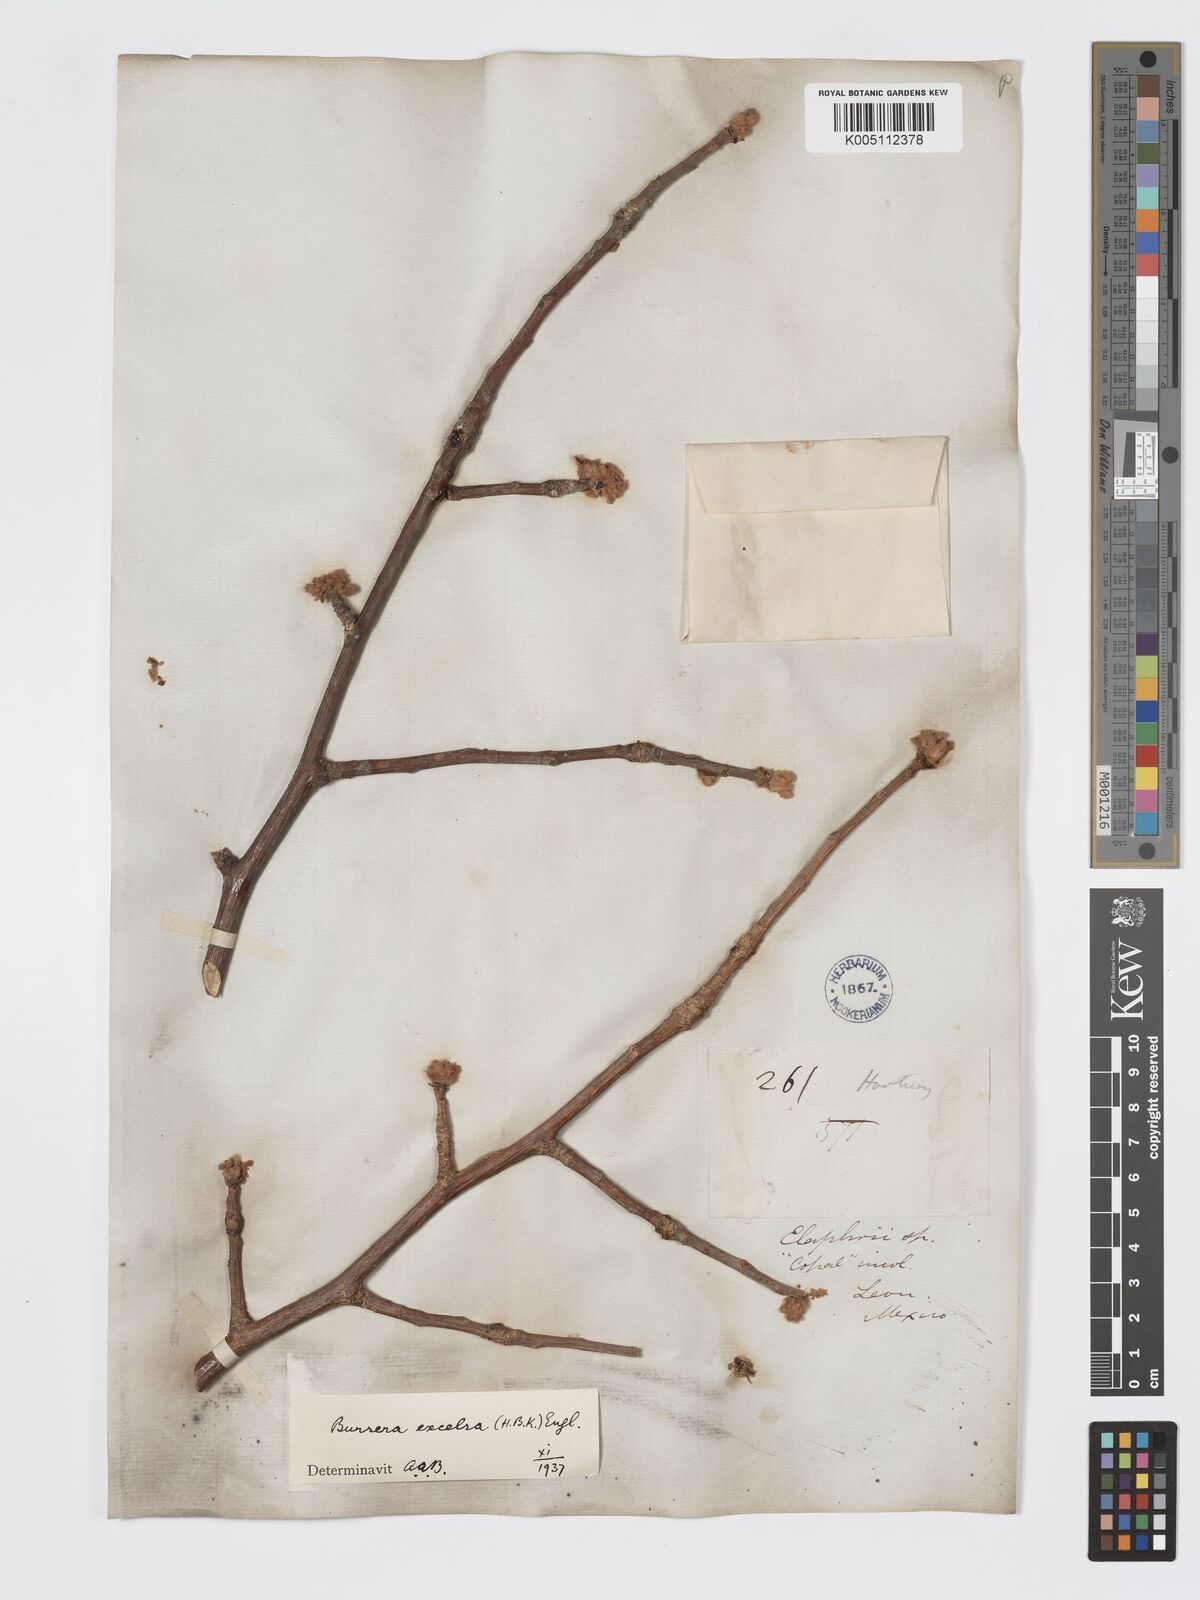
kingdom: Plantae
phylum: Tracheophyta
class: Magnoliopsida
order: Sapindales
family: Burseraceae
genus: Bursera
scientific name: Bursera excelsa
